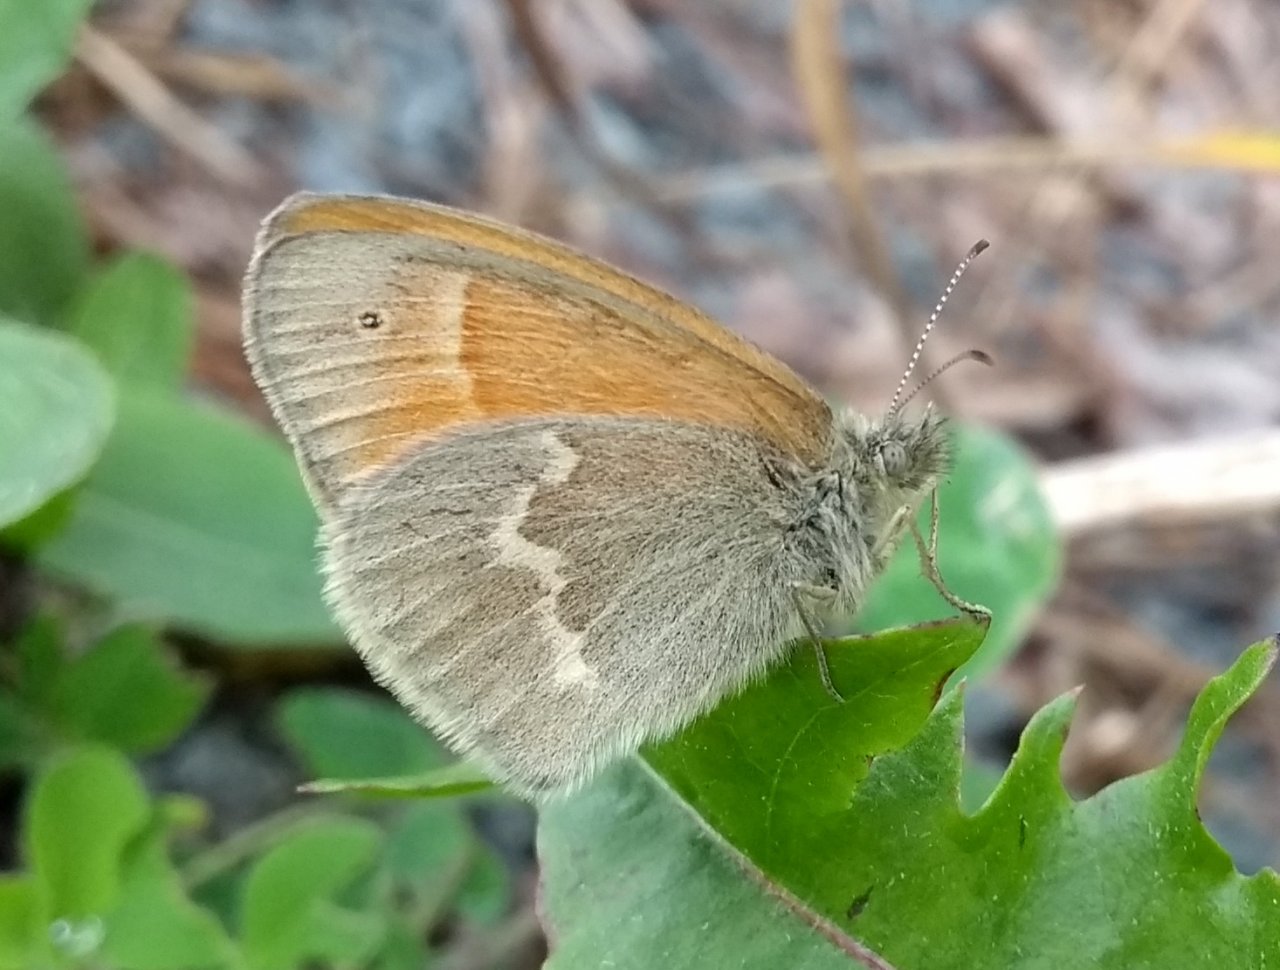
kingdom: Animalia
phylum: Arthropoda
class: Insecta
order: Lepidoptera
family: Nymphalidae
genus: Coenonympha
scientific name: Coenonympha tullia
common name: Large Heath
